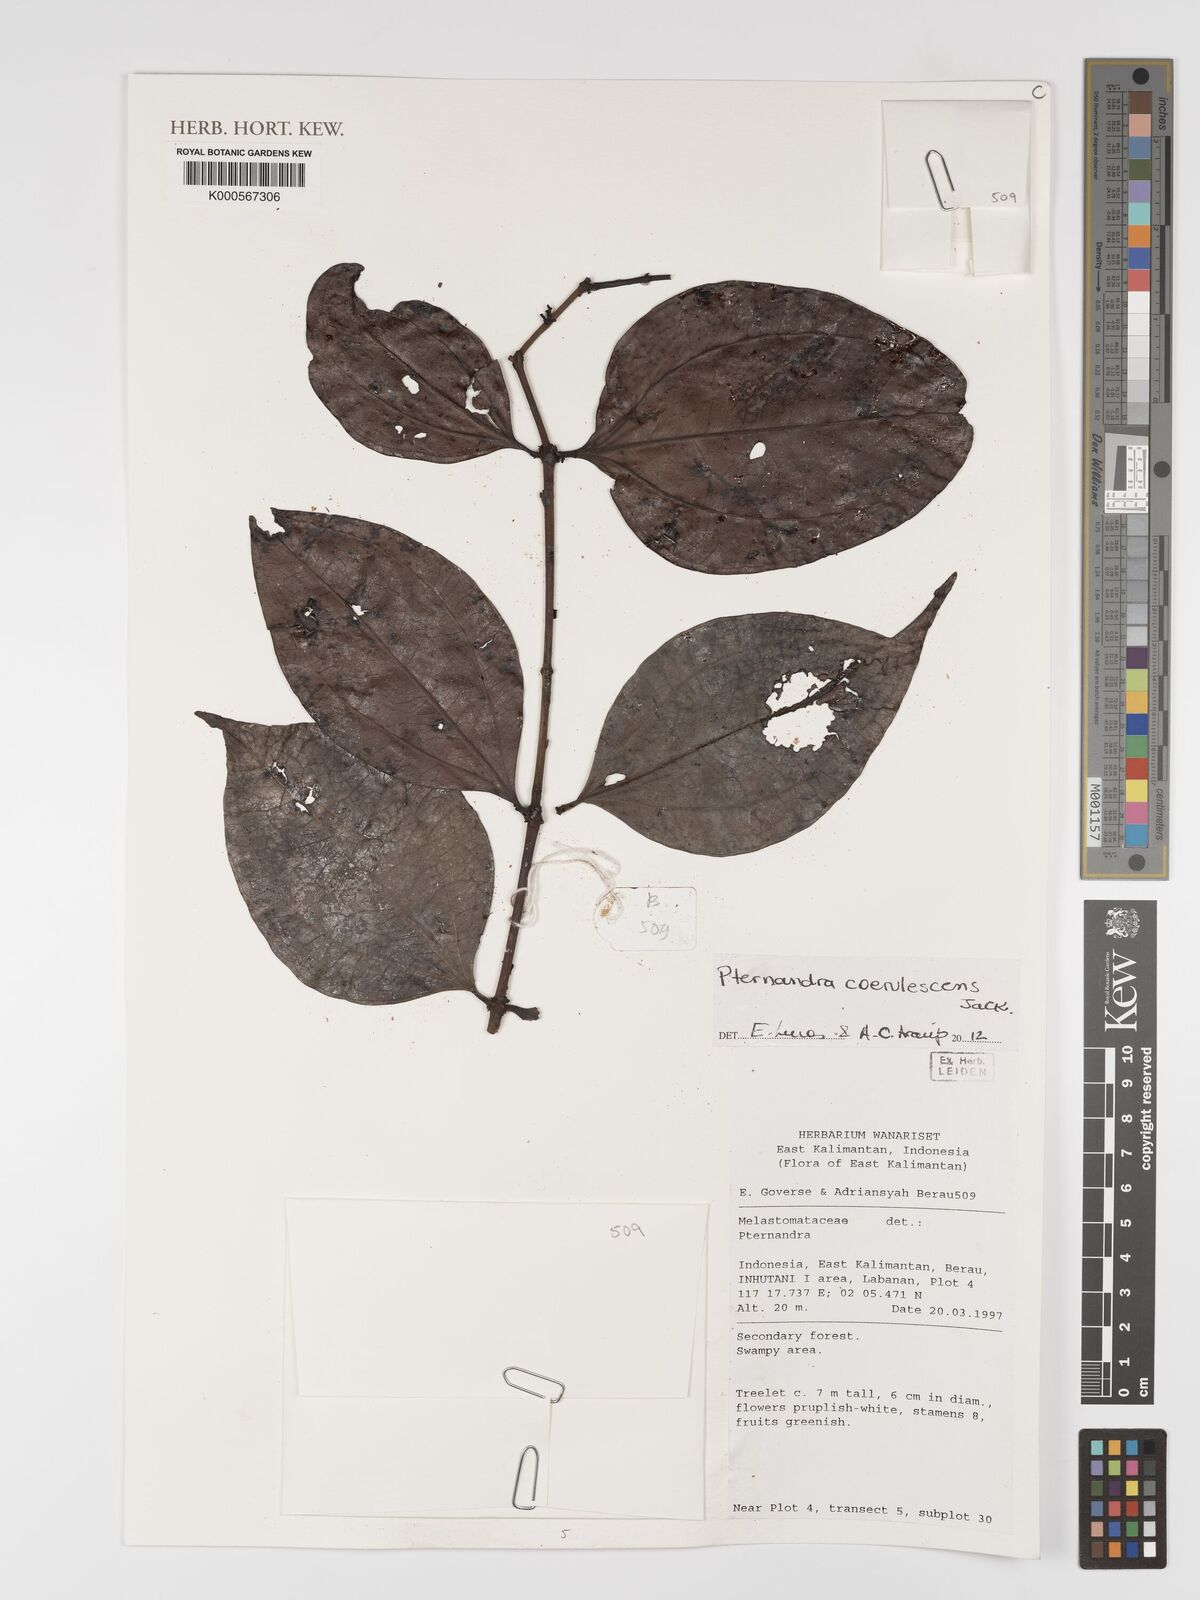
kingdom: Plantae
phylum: Tracheophyta
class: Magnoliopsida
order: Myrtales
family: Melastomataceae
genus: Pternandra
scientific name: Pternandra
